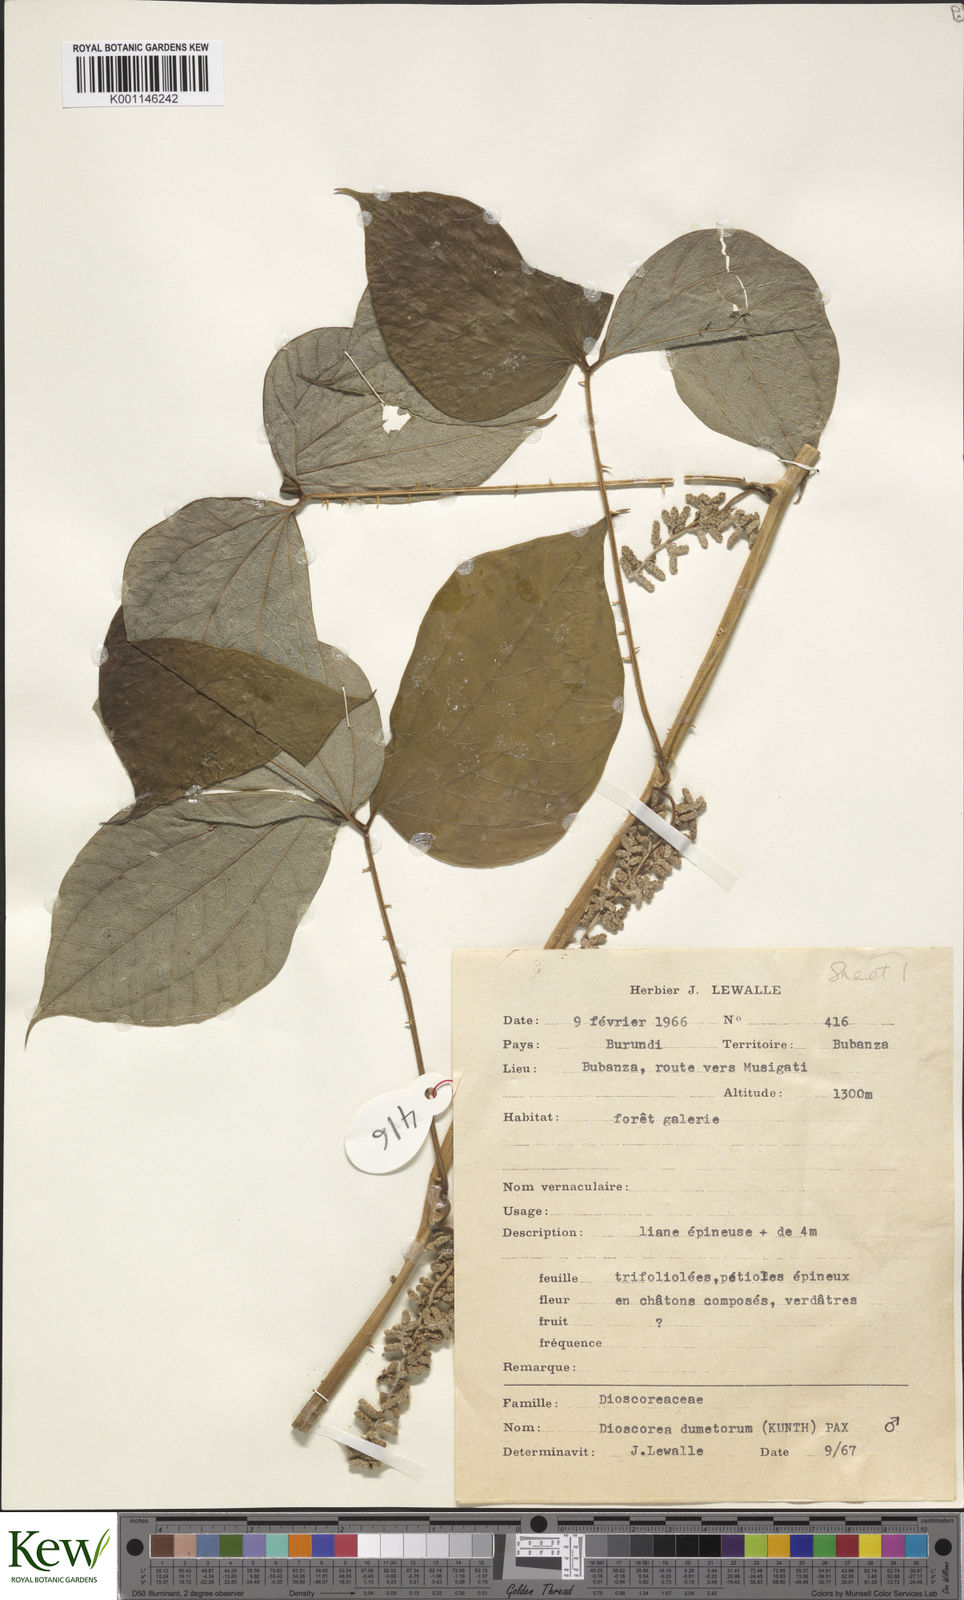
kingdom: Plantae
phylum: Tracheophyta
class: Liliopsida
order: Dioscoreales
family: Dioscoreaceae
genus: Dioscorea
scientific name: Dioscorea dumetorum
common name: African bitter yam
